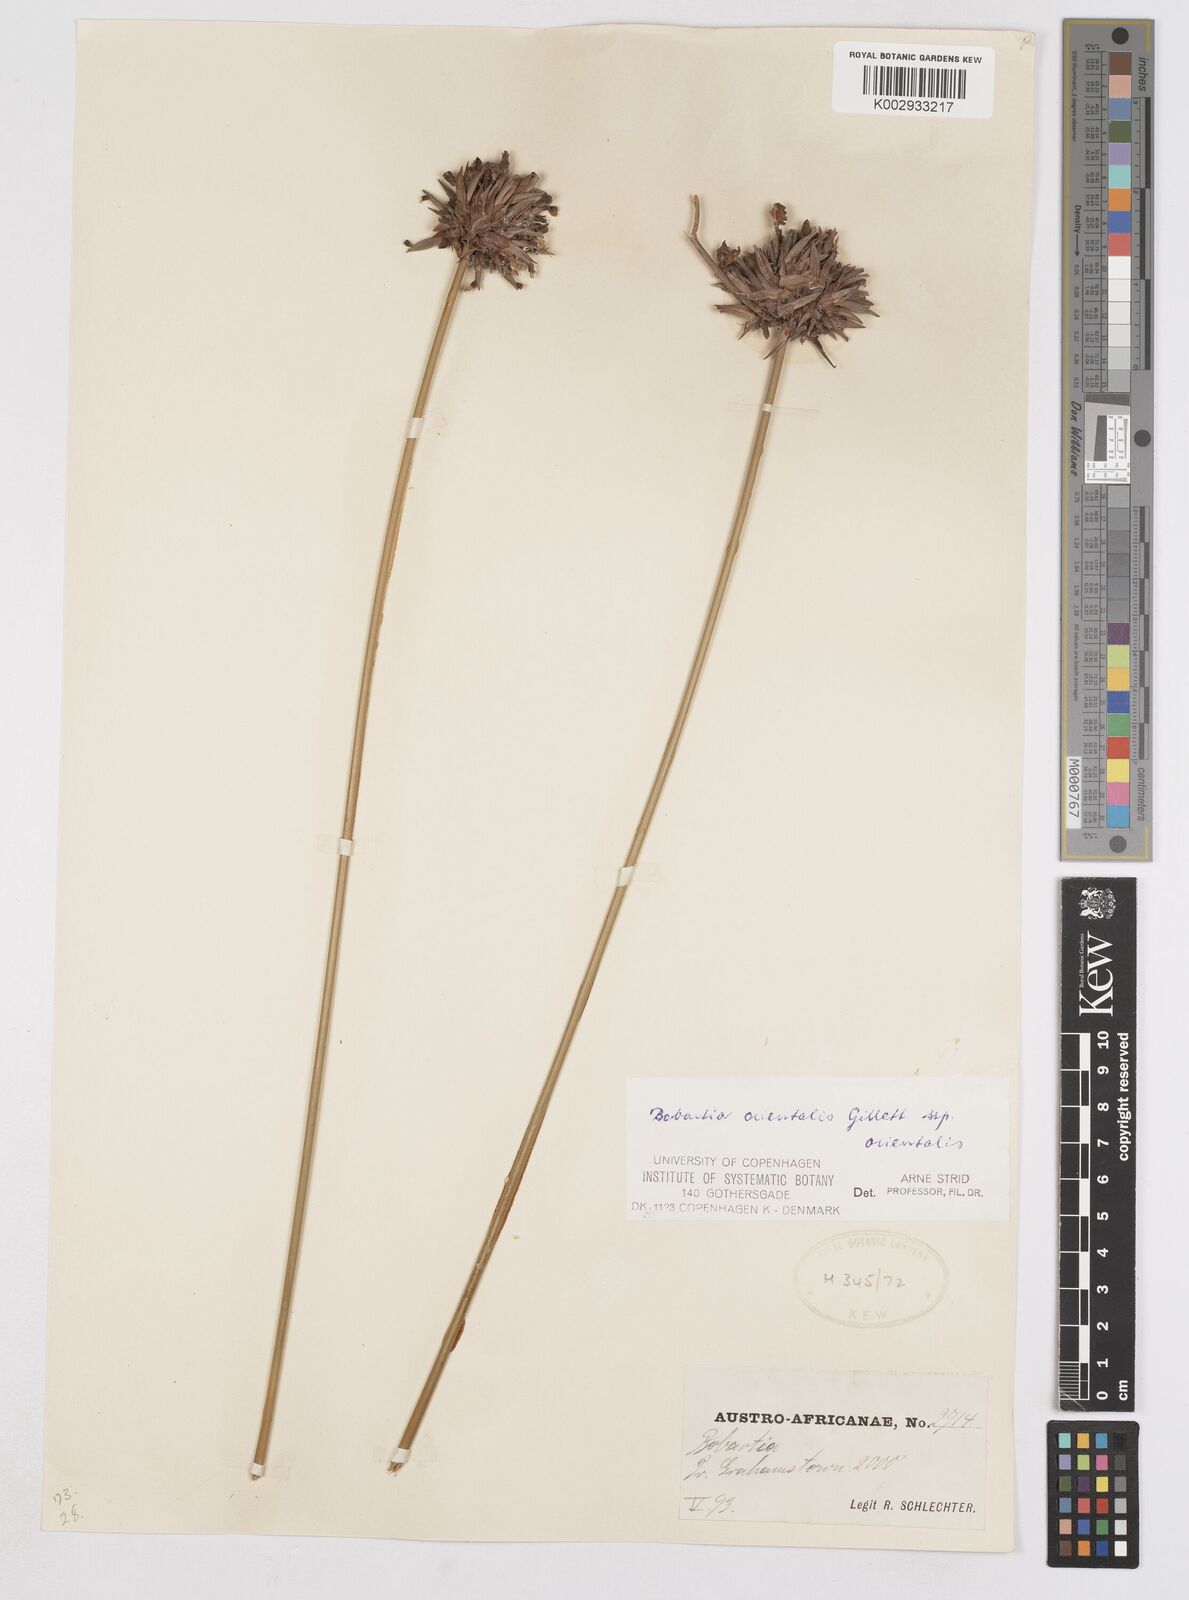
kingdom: Plantae
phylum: Tracheophyta
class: Liliopsida
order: Asparagales
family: Iridaceae
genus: Bobartia
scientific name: Bobartia orientalis
